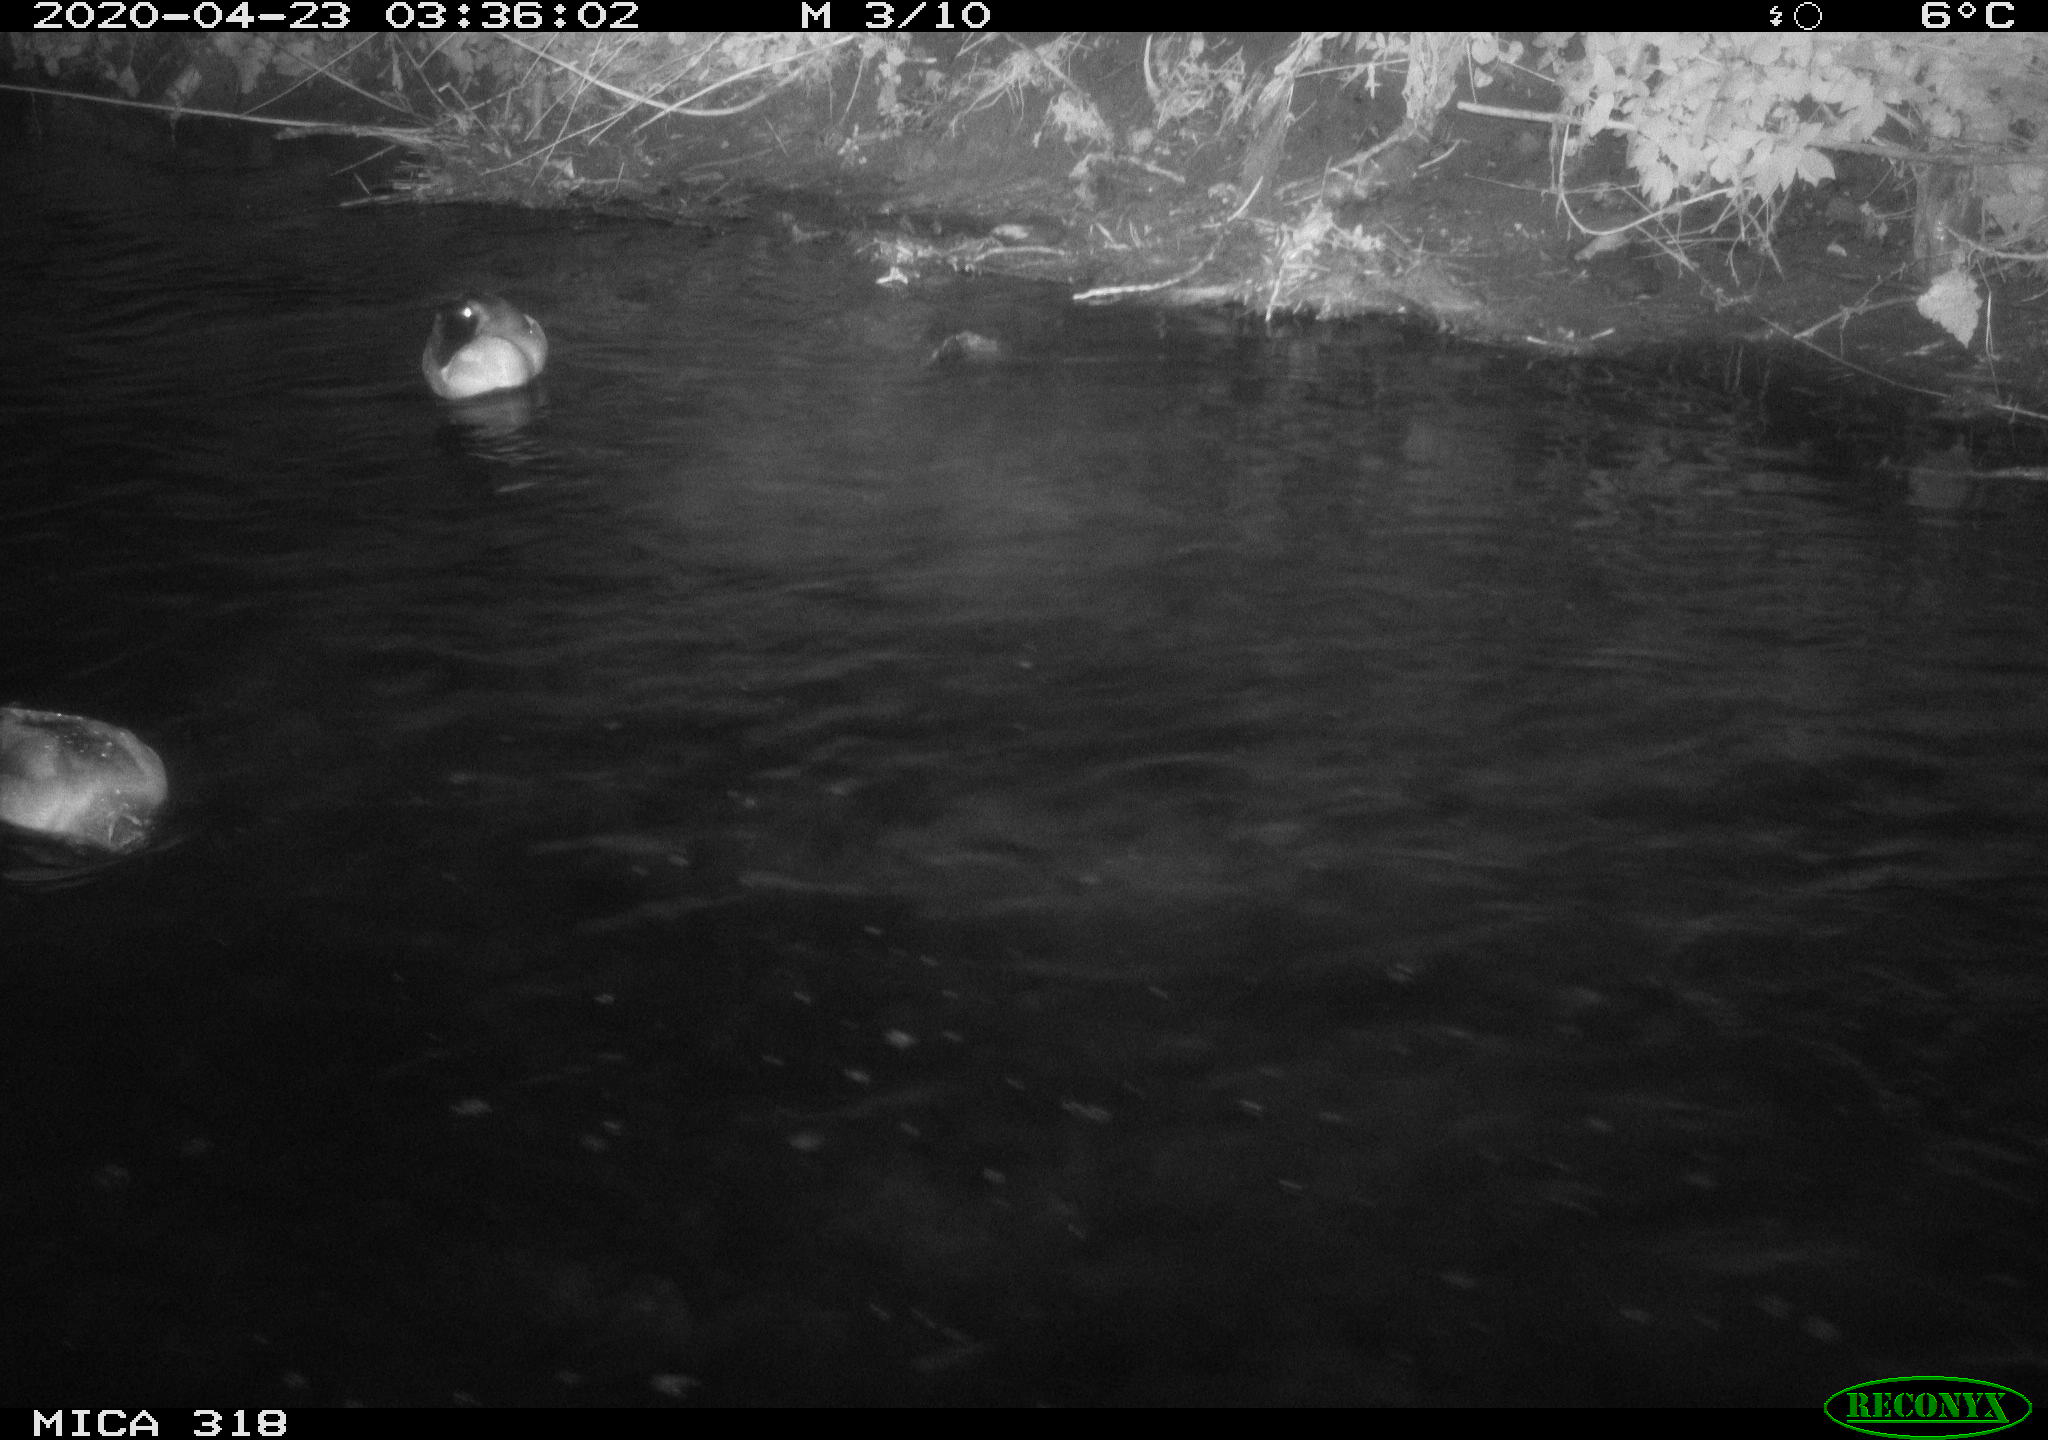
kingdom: Animalia
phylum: Chordata
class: Aves
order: Anseriformes
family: Anatidae
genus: Anas
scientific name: Anas platyrhynchos
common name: Mallard
